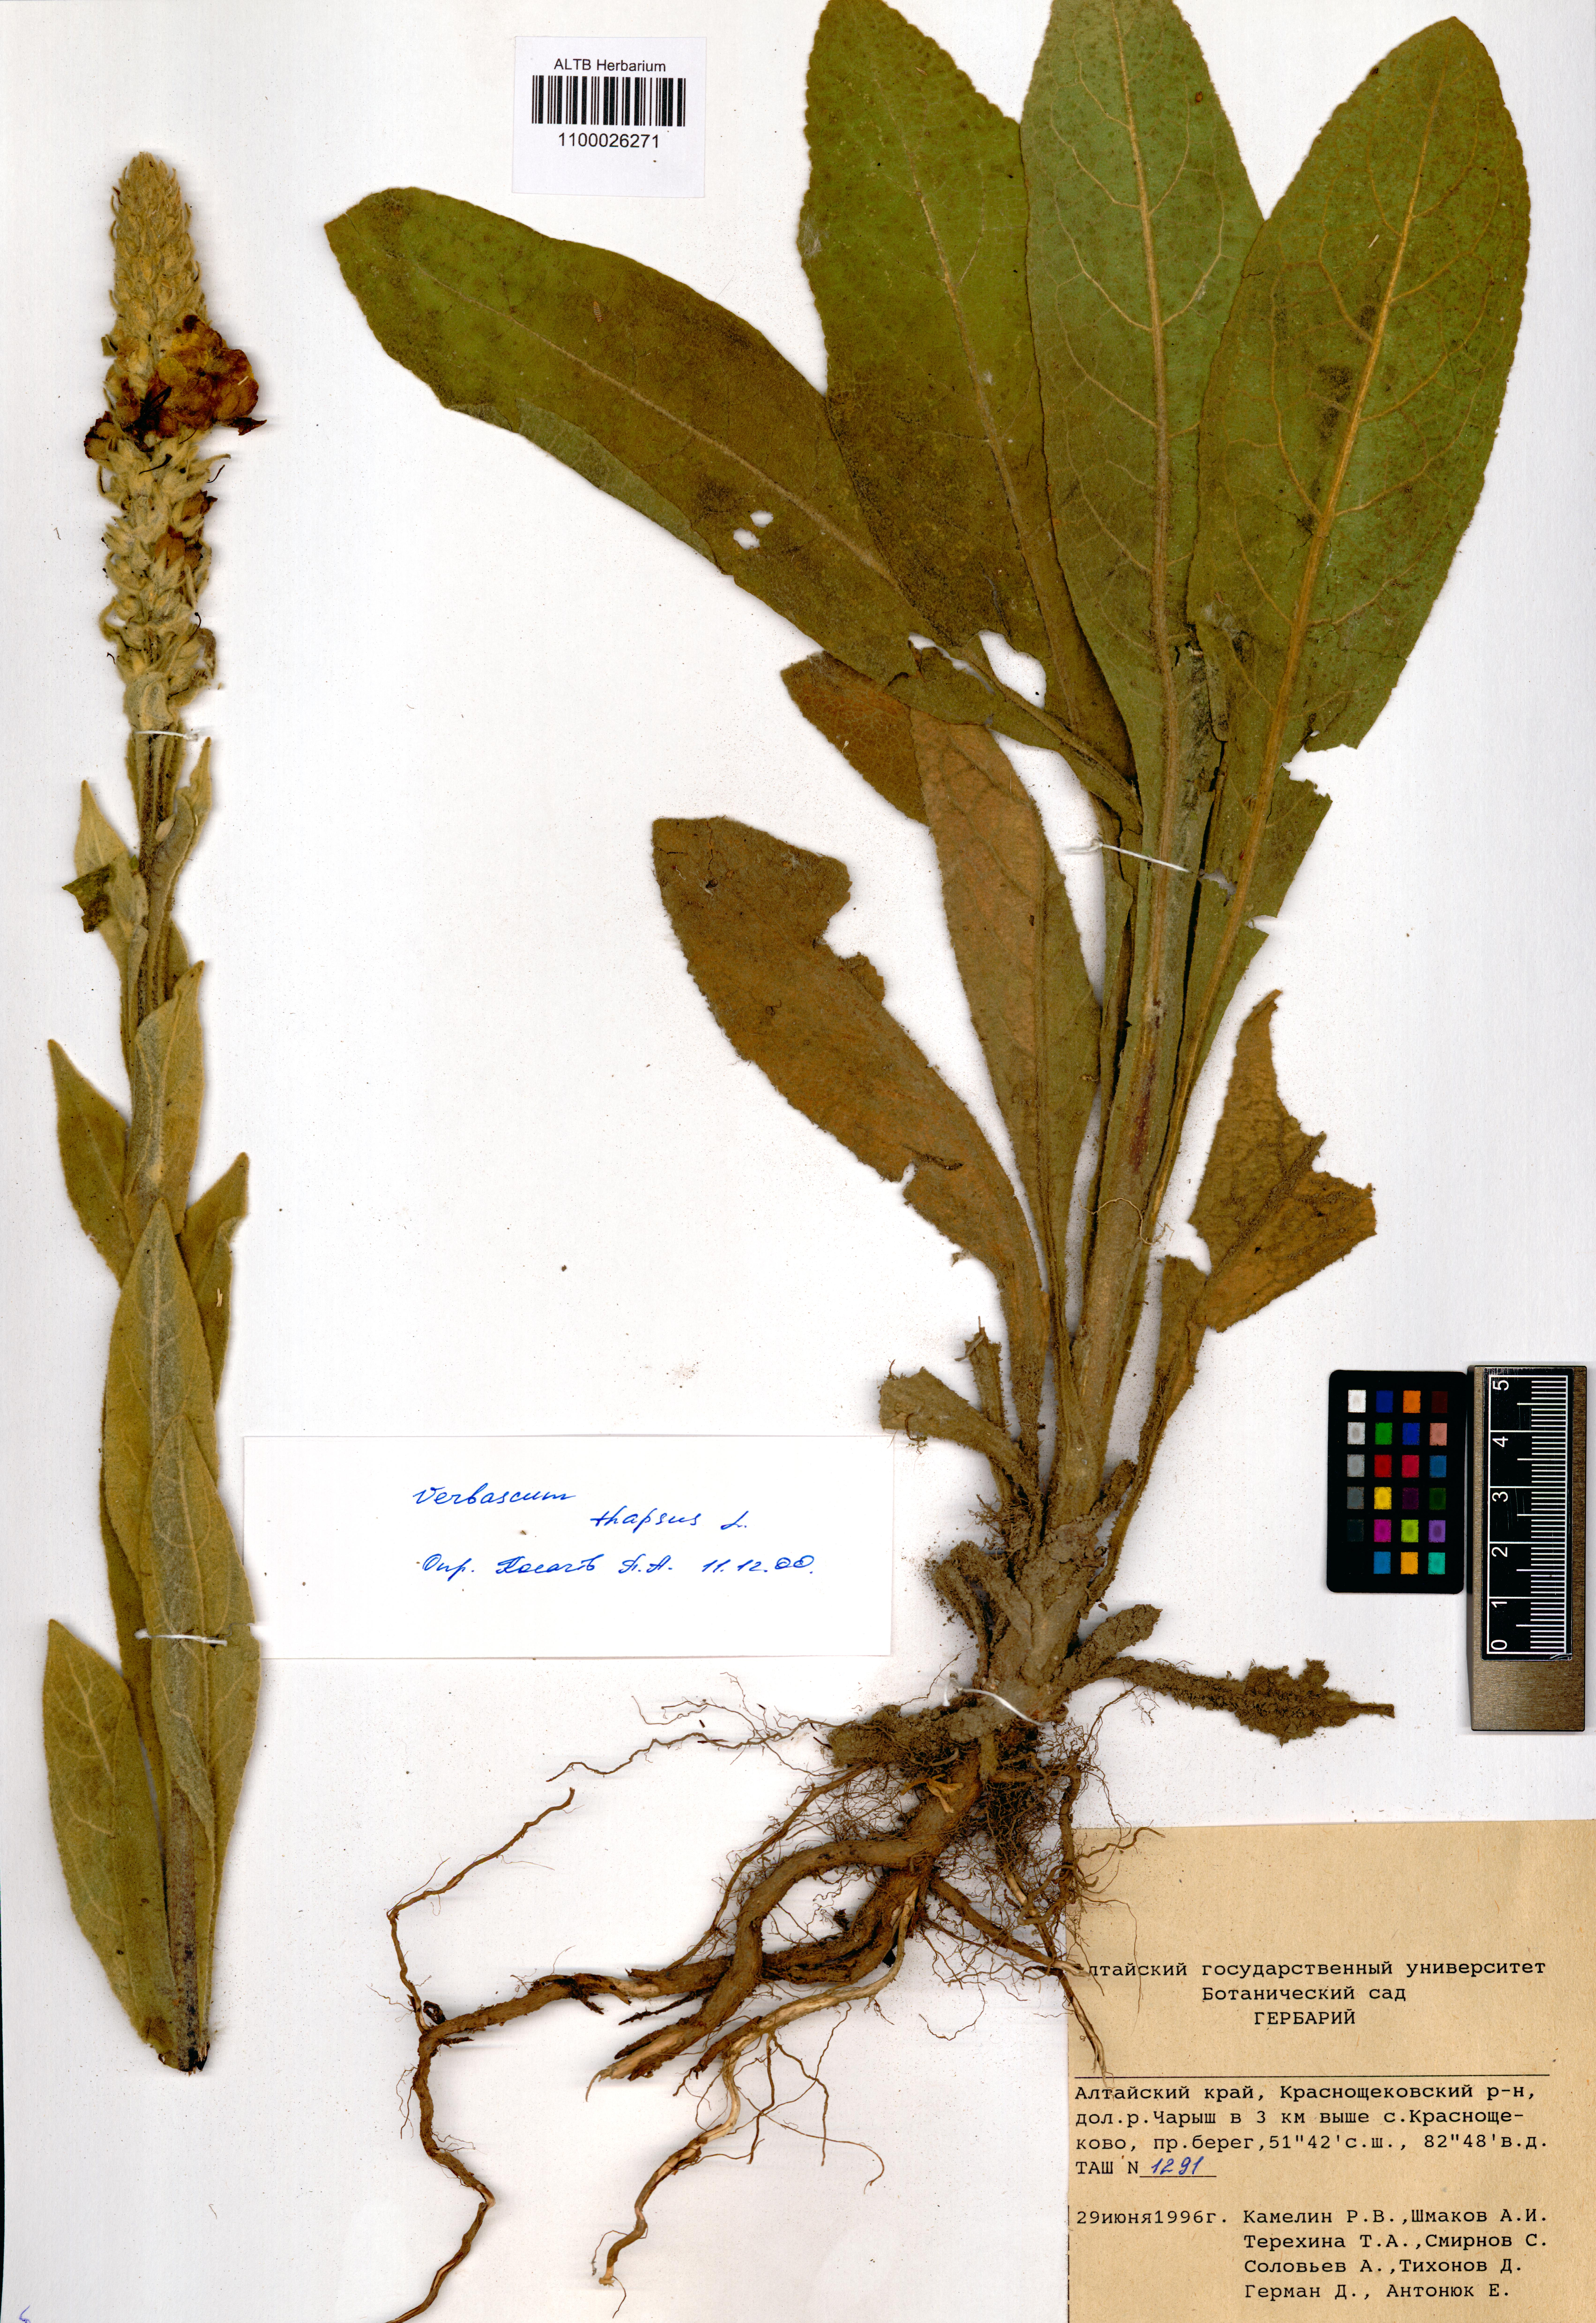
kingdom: Plantae
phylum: Tracheophyta
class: Magnoliopsida
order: Lamiales
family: Scrophulariaceae
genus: Verbascum
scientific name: Verbascum thapsus
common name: Common mullein
